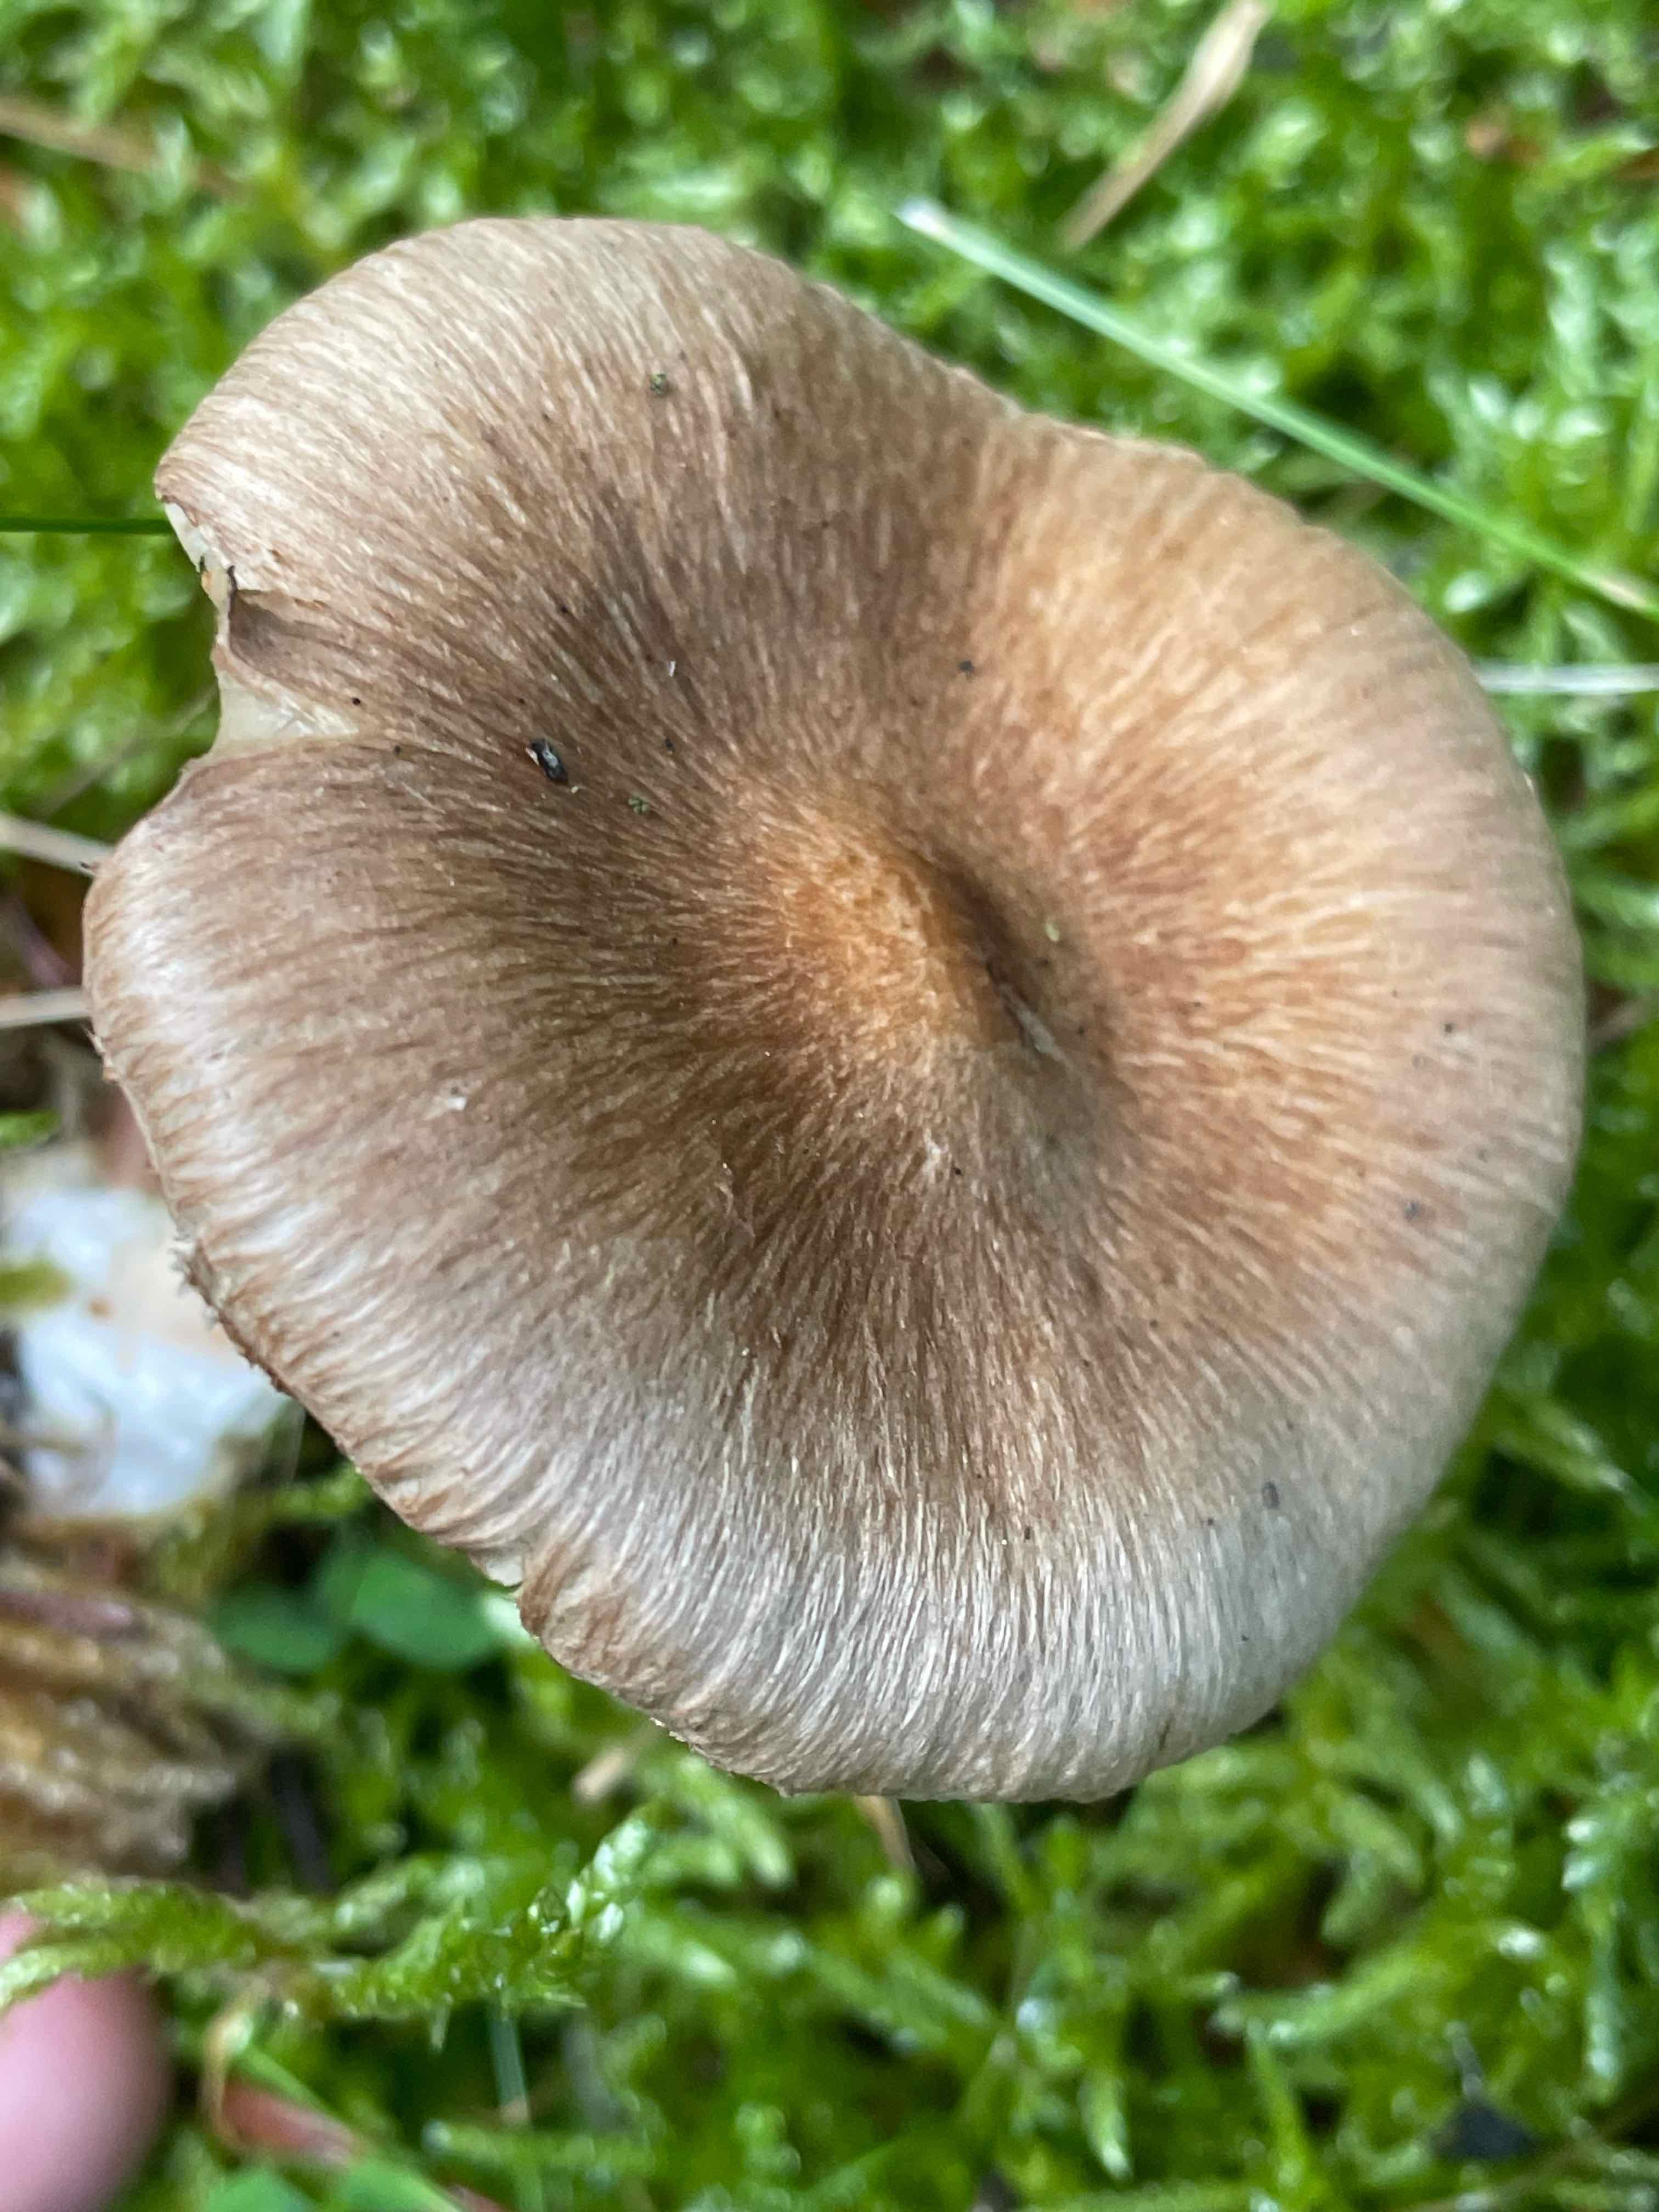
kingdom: Fungi
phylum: Basidiomycota
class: Agaricomycetes
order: Agaricales
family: Inocybaceae
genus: Inocybe
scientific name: Inocybe
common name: trævlhat
